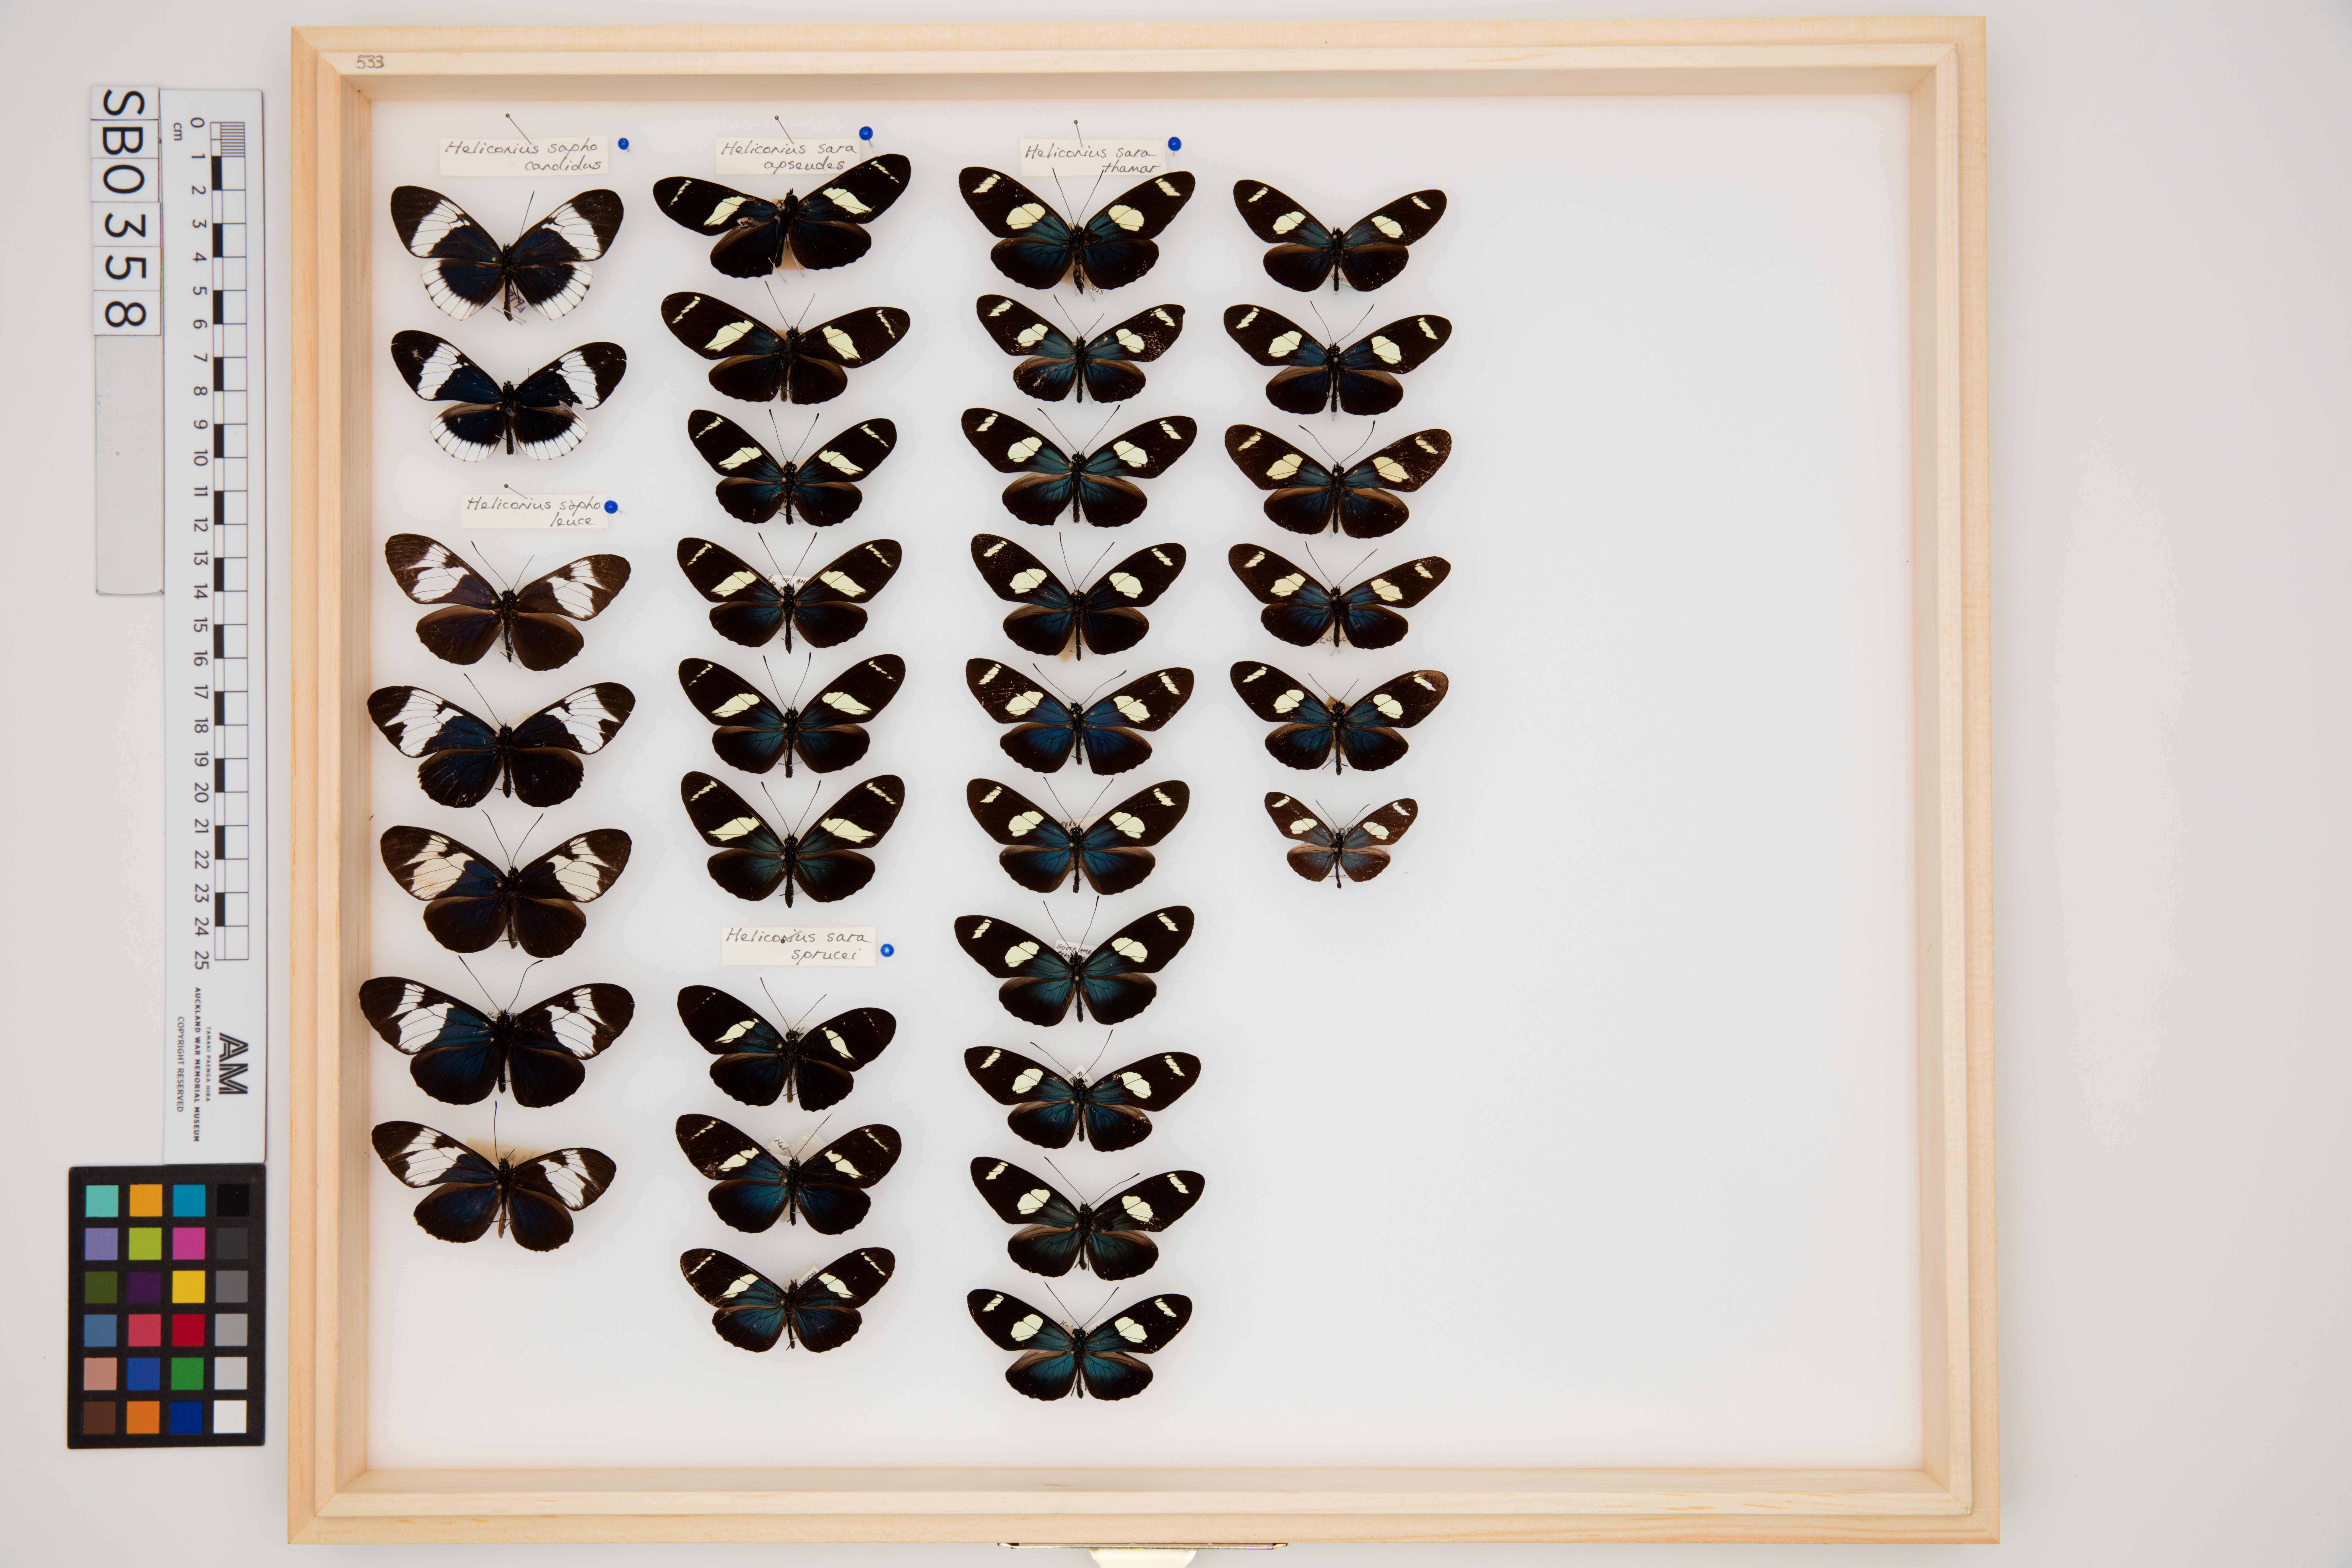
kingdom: Animalia
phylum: Arthropoda
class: Insecta
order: Lepidoptera
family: Nymphalidae
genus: Heliconius
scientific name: Heliconius sara
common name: Sara longwing
